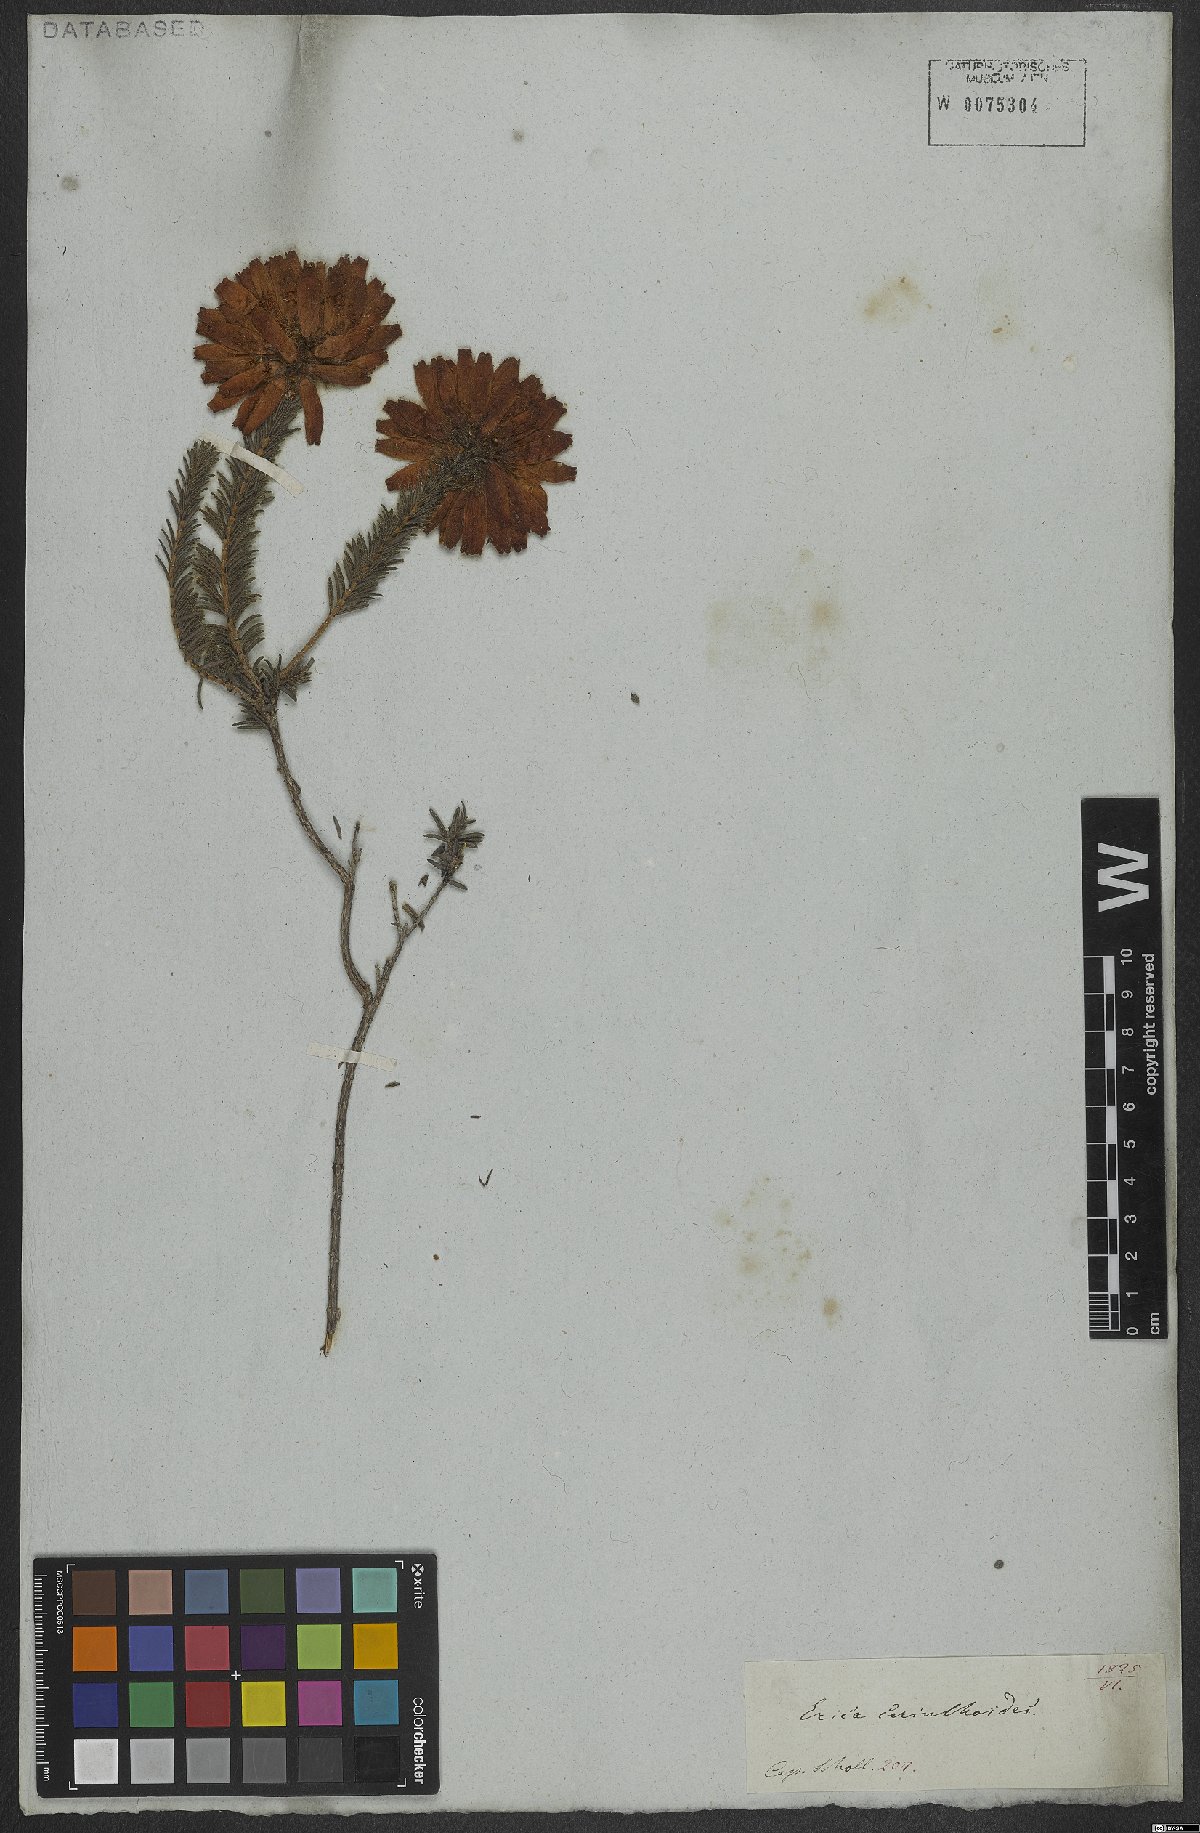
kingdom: Plantae
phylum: Tracheophyta
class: Magnoliopsida
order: Ericales
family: Ericaceae
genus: Erica
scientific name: Erica cerinthoides
